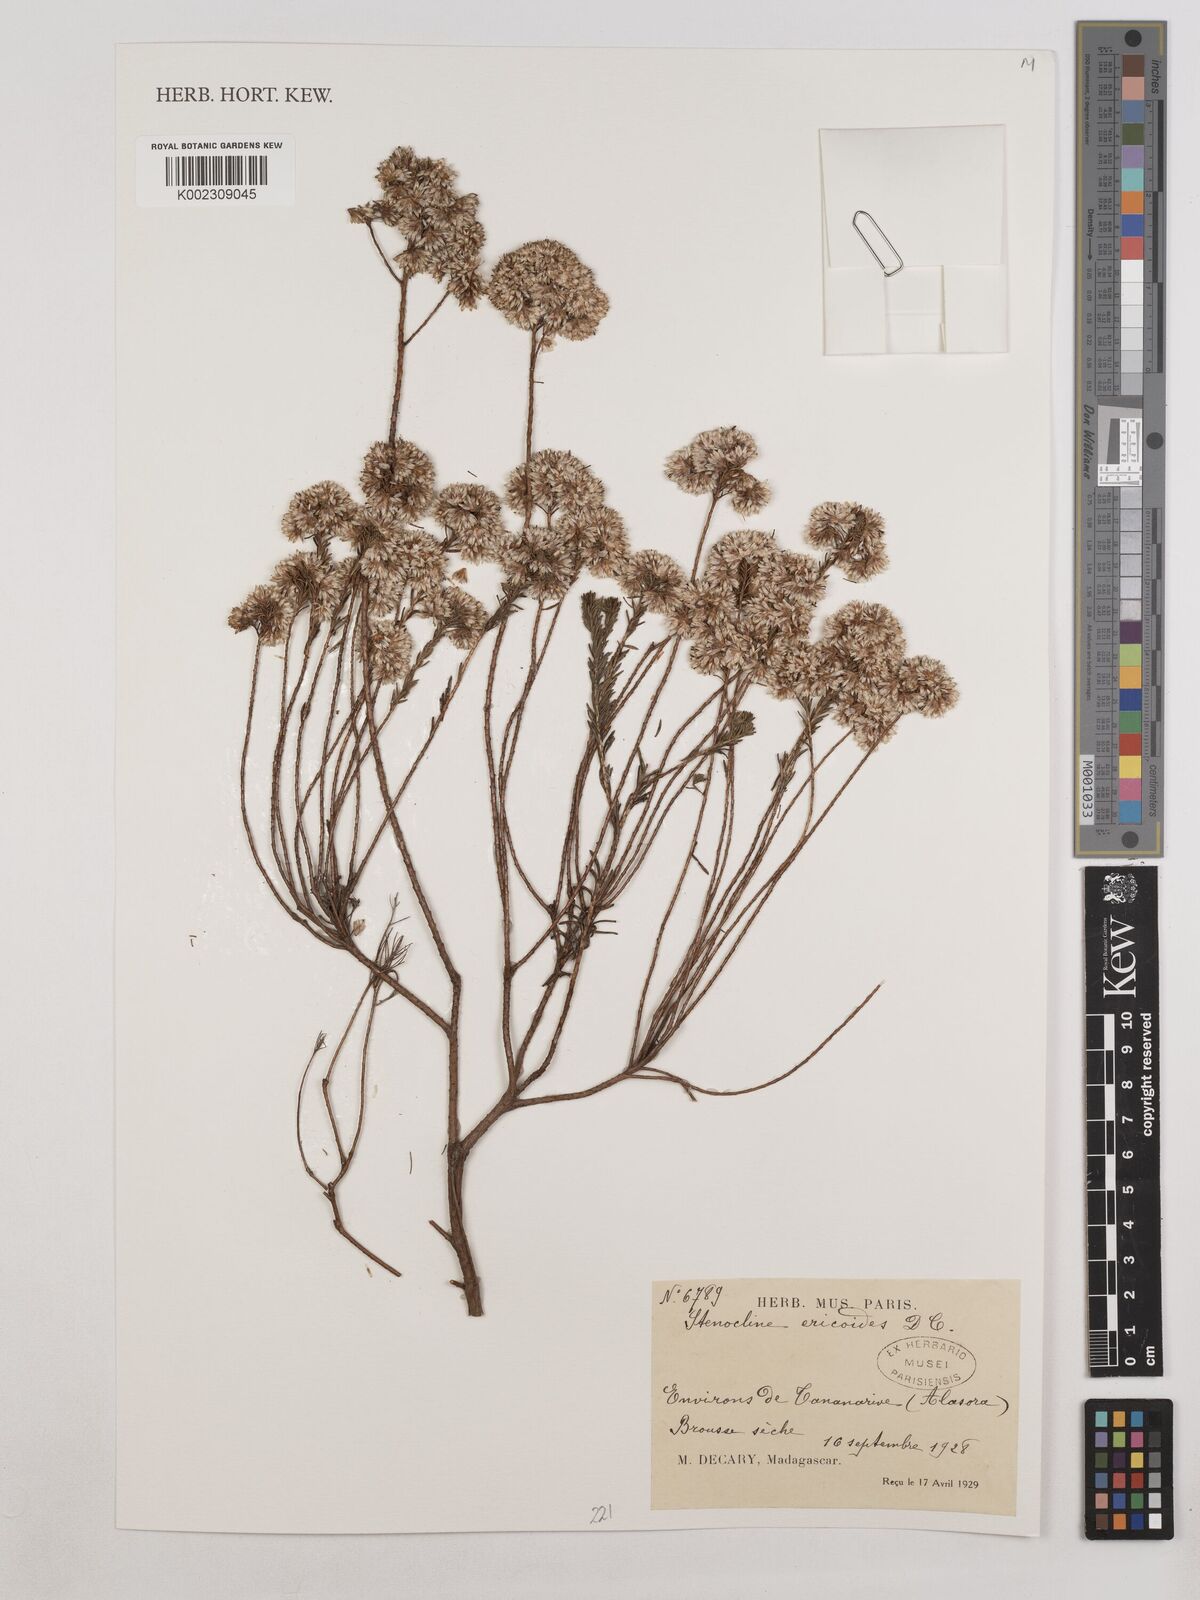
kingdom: Plantae
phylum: Tracheophyta
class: Magnoliopsida
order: Asterales
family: Asteraceae
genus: Stenocline
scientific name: Stenocline ericoides
